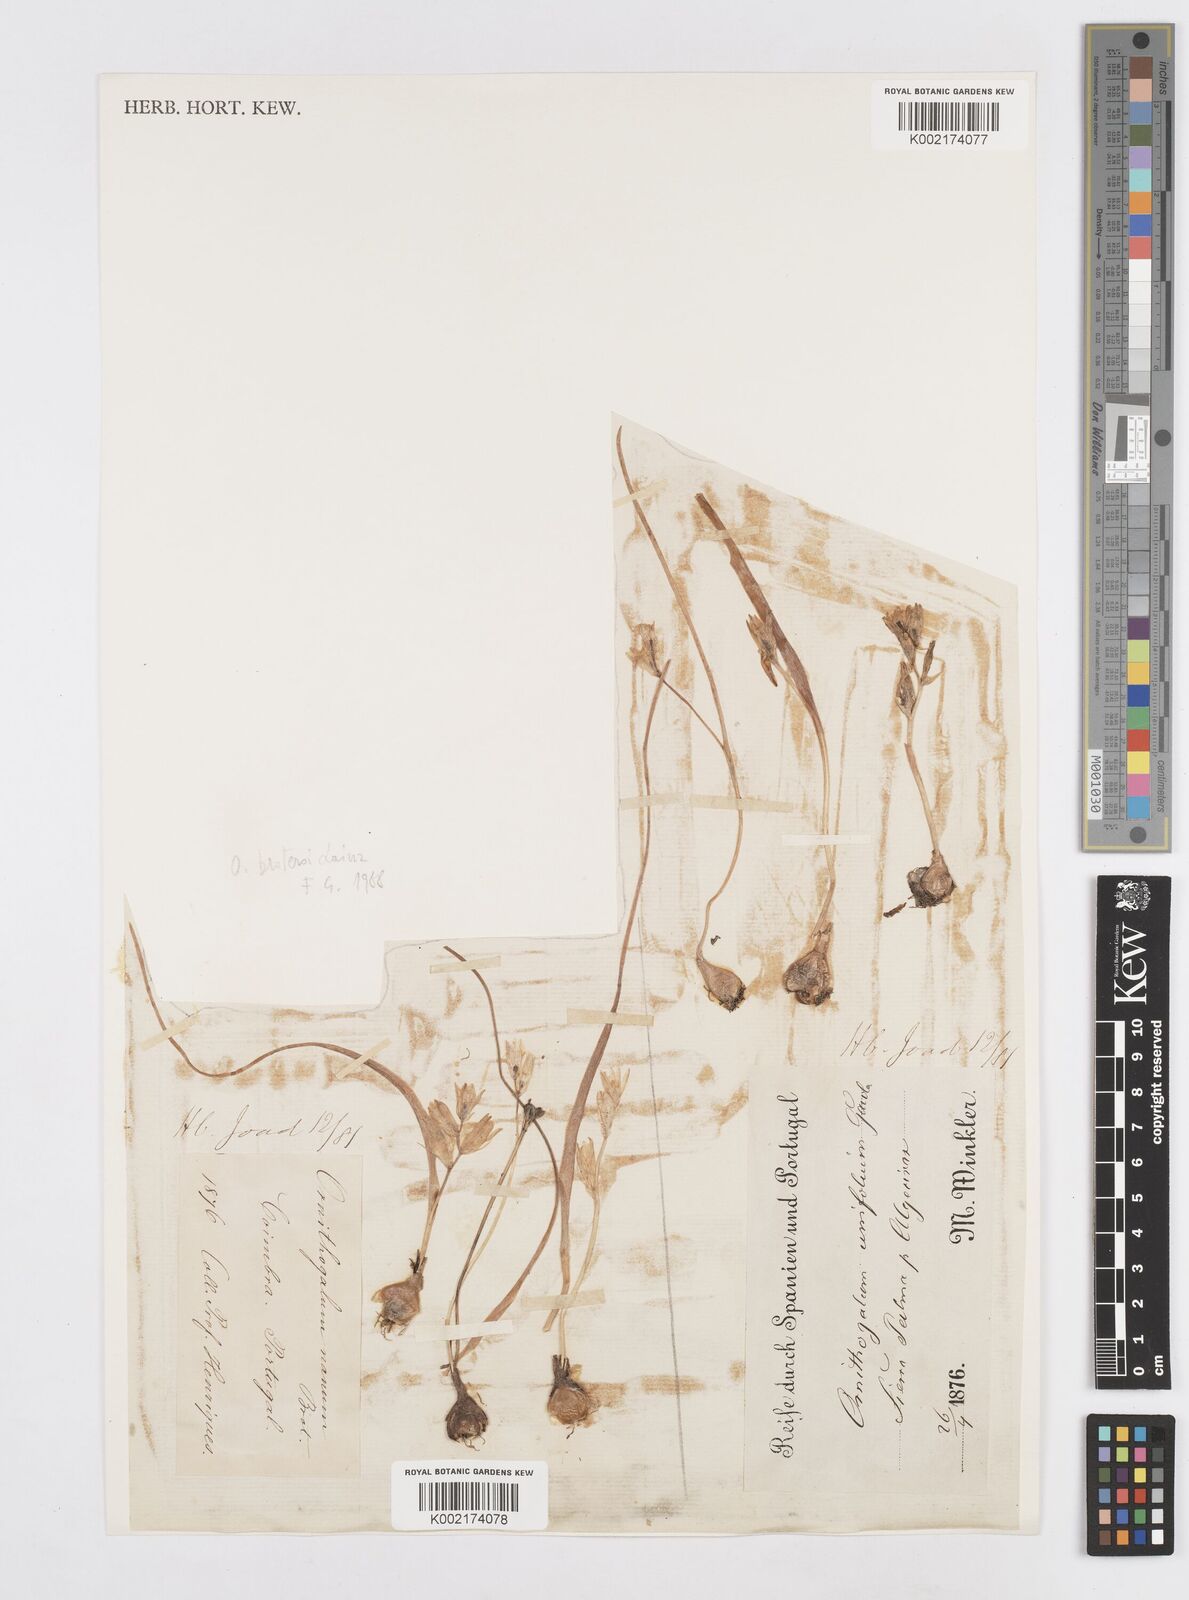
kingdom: Plantae
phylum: Tracheophyta
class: Liliopsida
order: Asparagales
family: Asparagaceae
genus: Ornithogalum
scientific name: Ornithogalum broteroi
